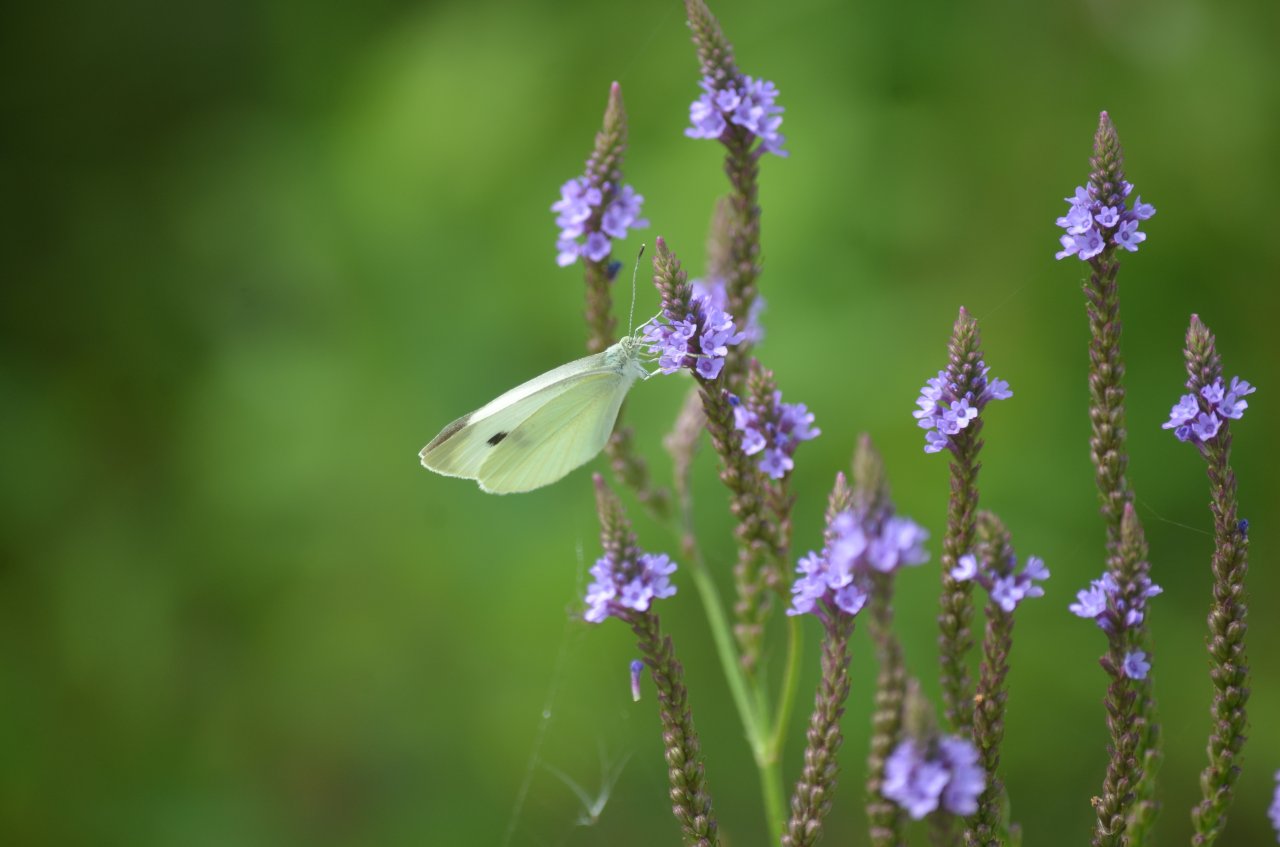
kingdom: Animalia
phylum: Arthropoda
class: Insecta
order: Lepidoptera
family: Pieridae
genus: Pieris
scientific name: Pieris rapae
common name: Cabbage White
